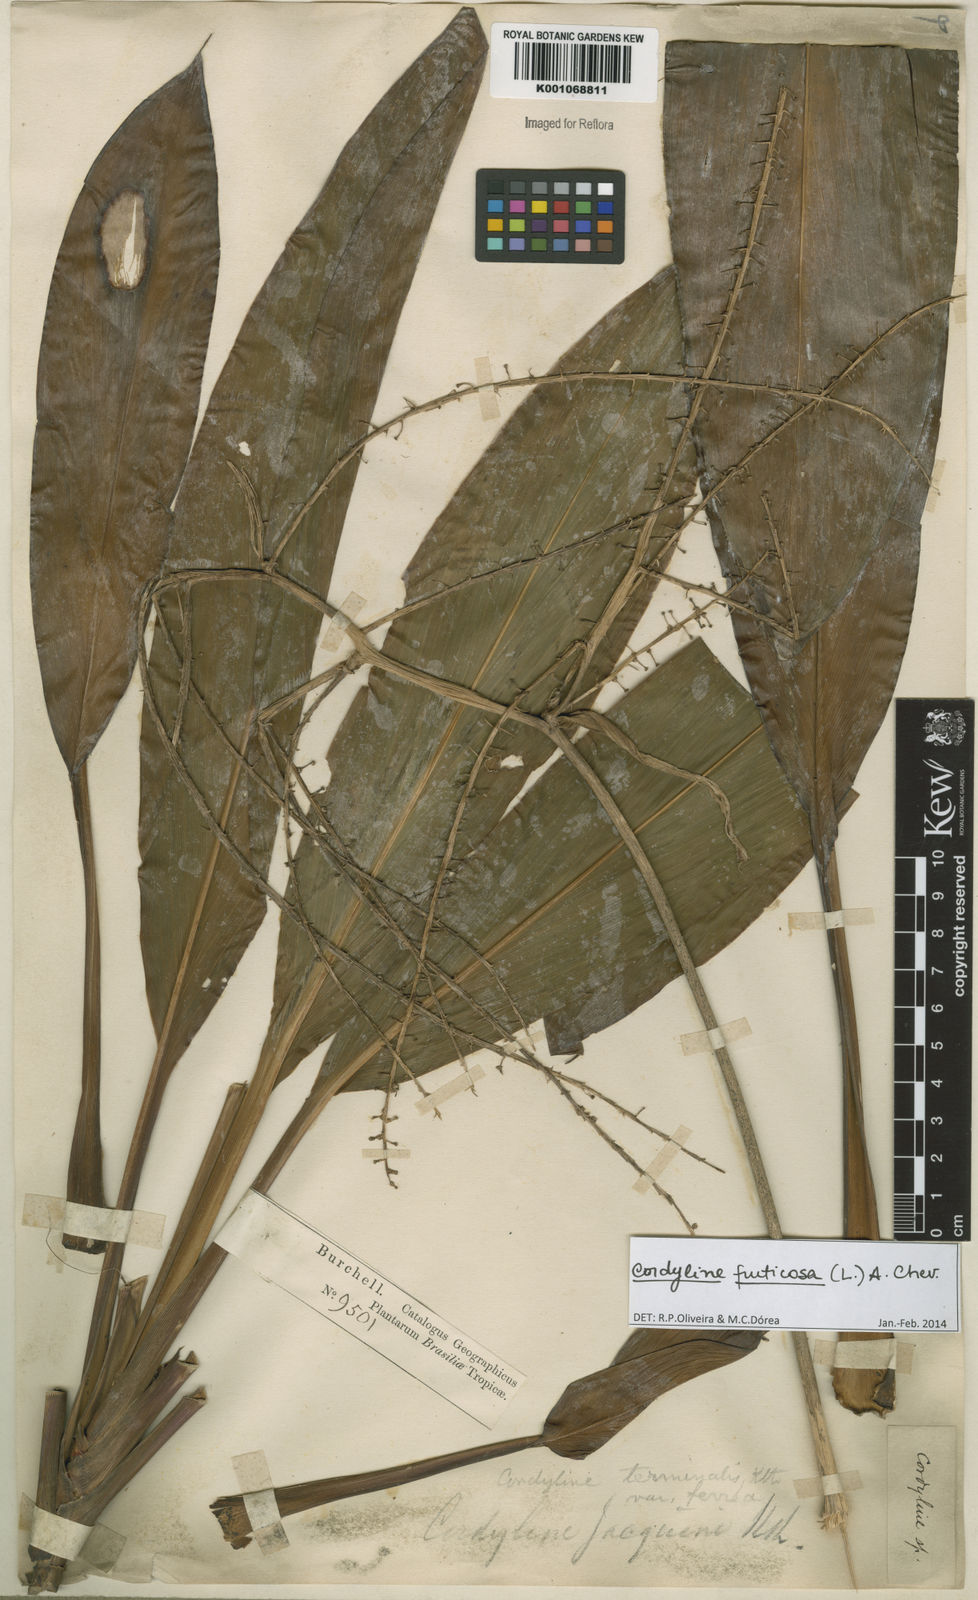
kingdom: Plantae
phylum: Tracheophyta
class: Liliopsida
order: Asparagales
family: Asparagaceae
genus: Cordyline
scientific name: Cordyline fruticosa
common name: Good-luck-plant
